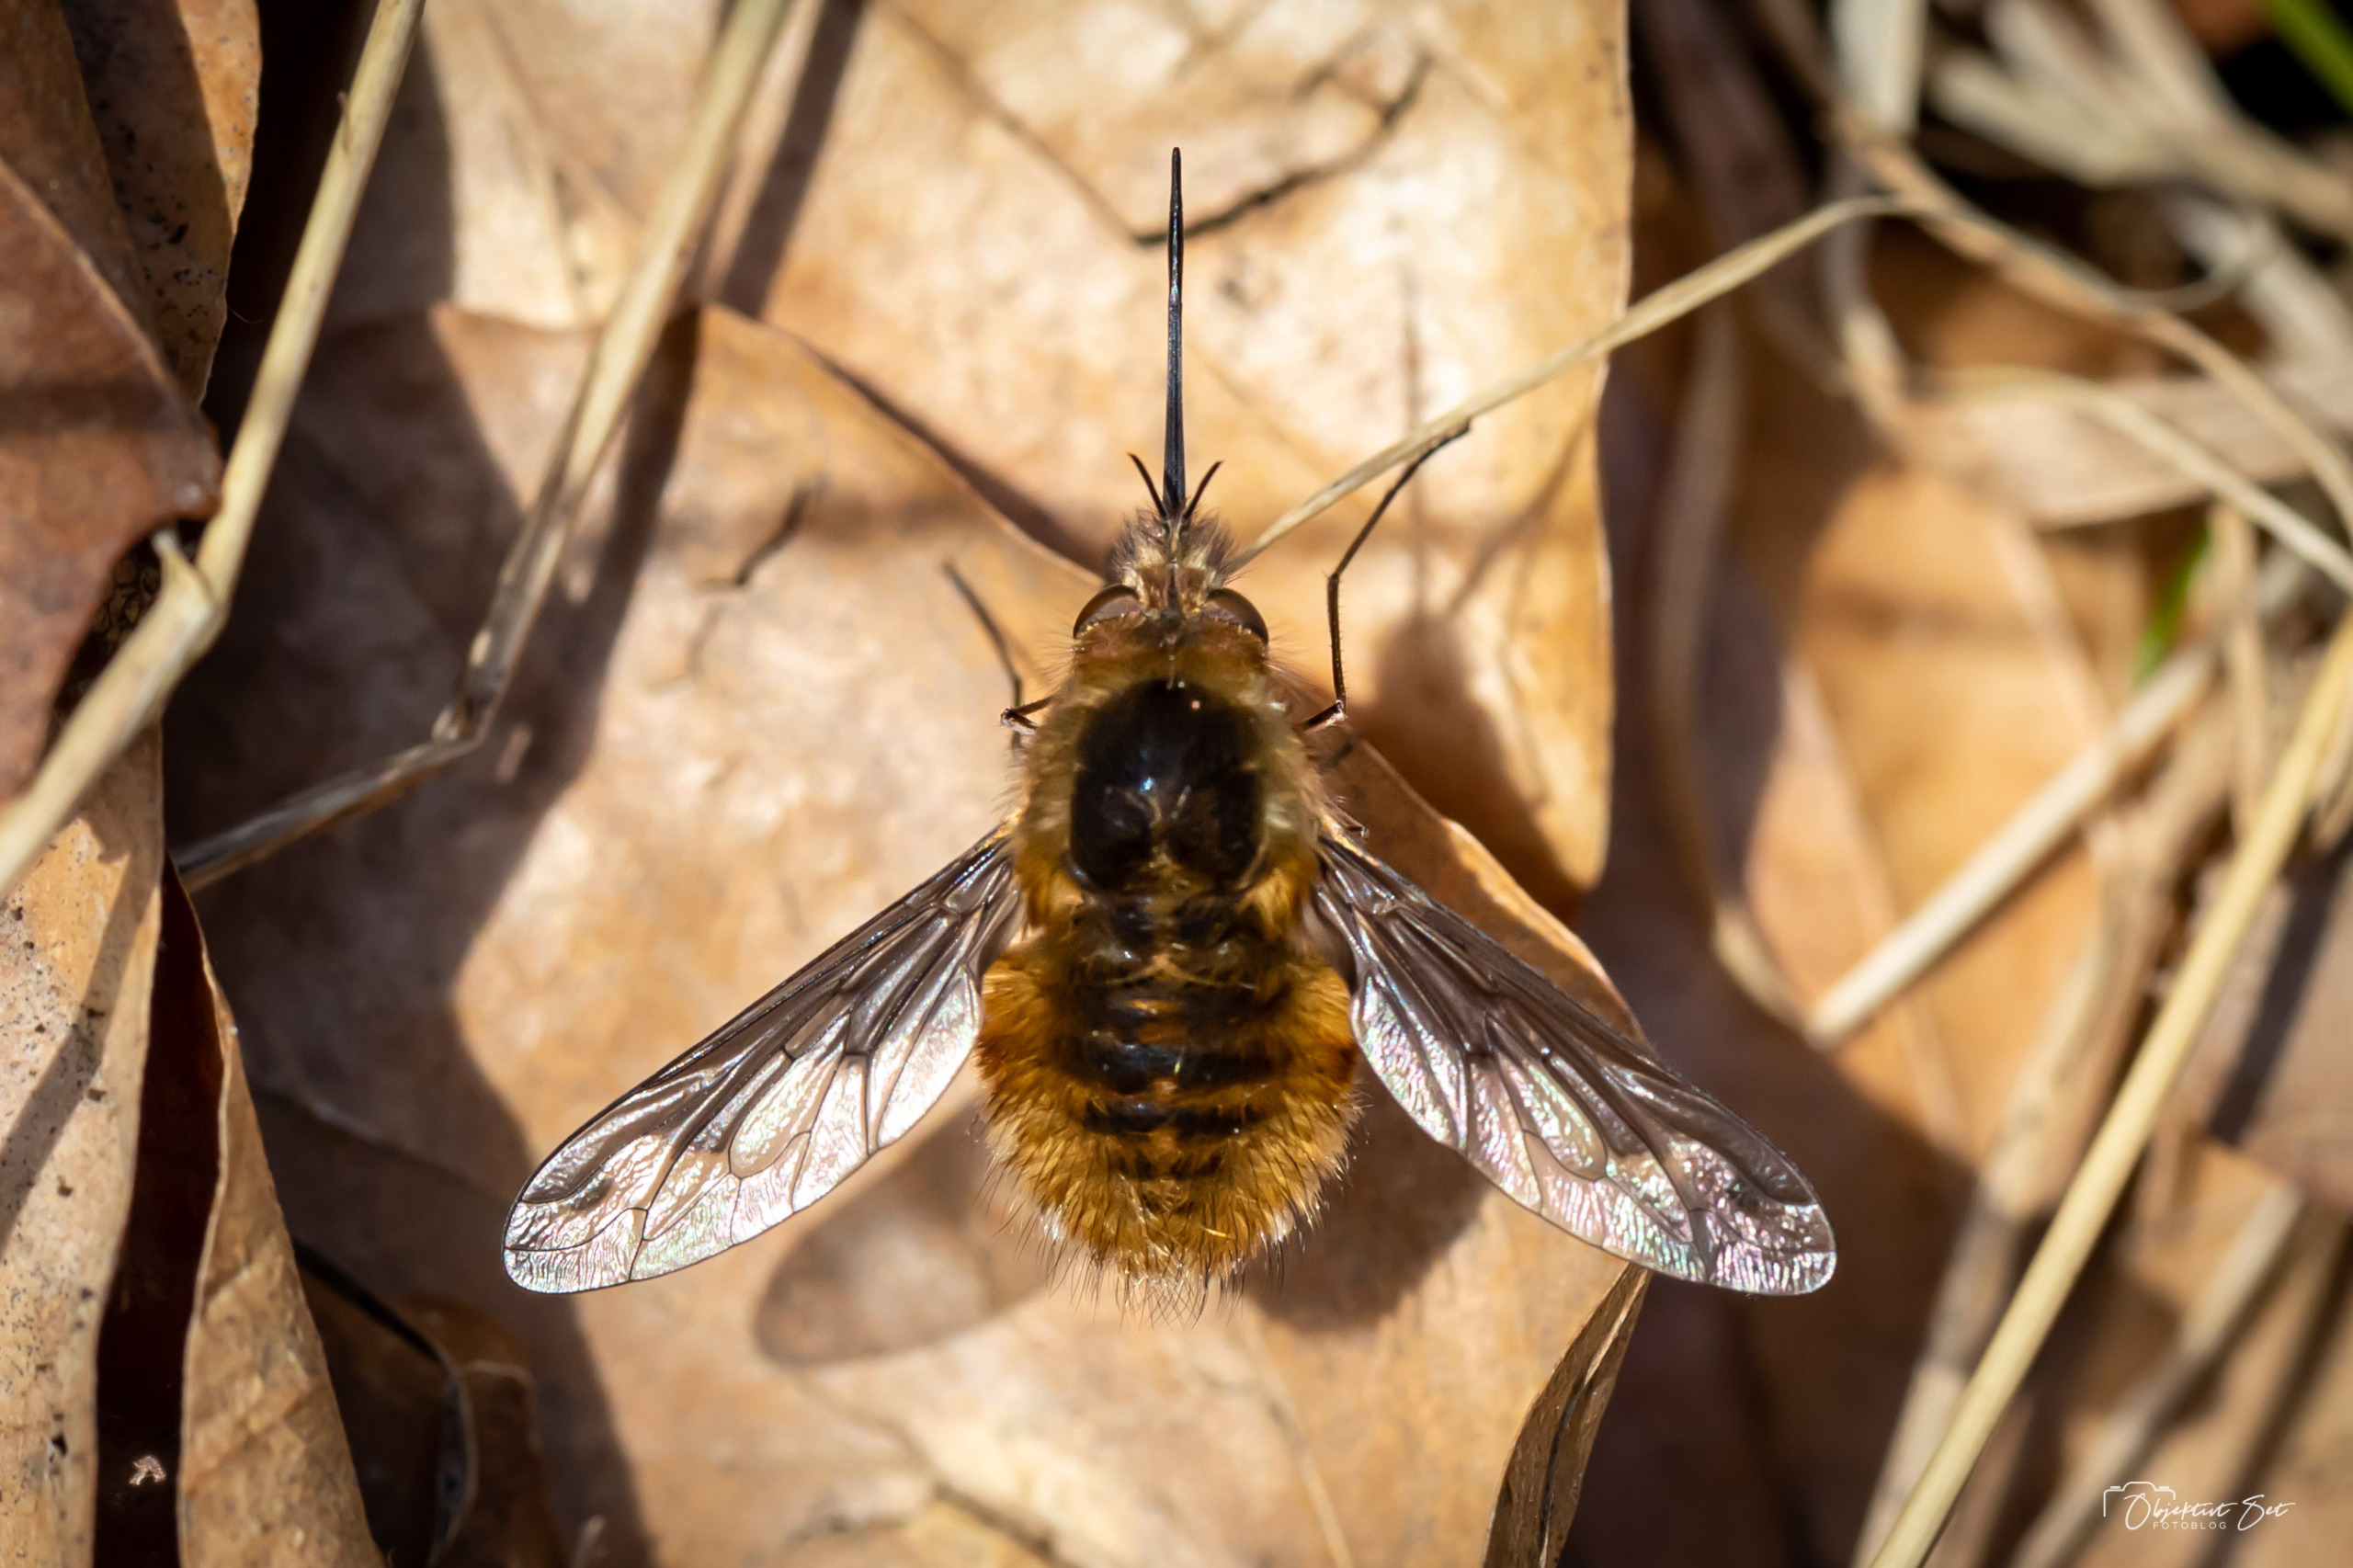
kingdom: Animalia
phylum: Arthropoda
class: Insecta
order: Diptera
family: Bombyliidae
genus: Bombylius
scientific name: Bombylius major
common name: Stor humleflue
